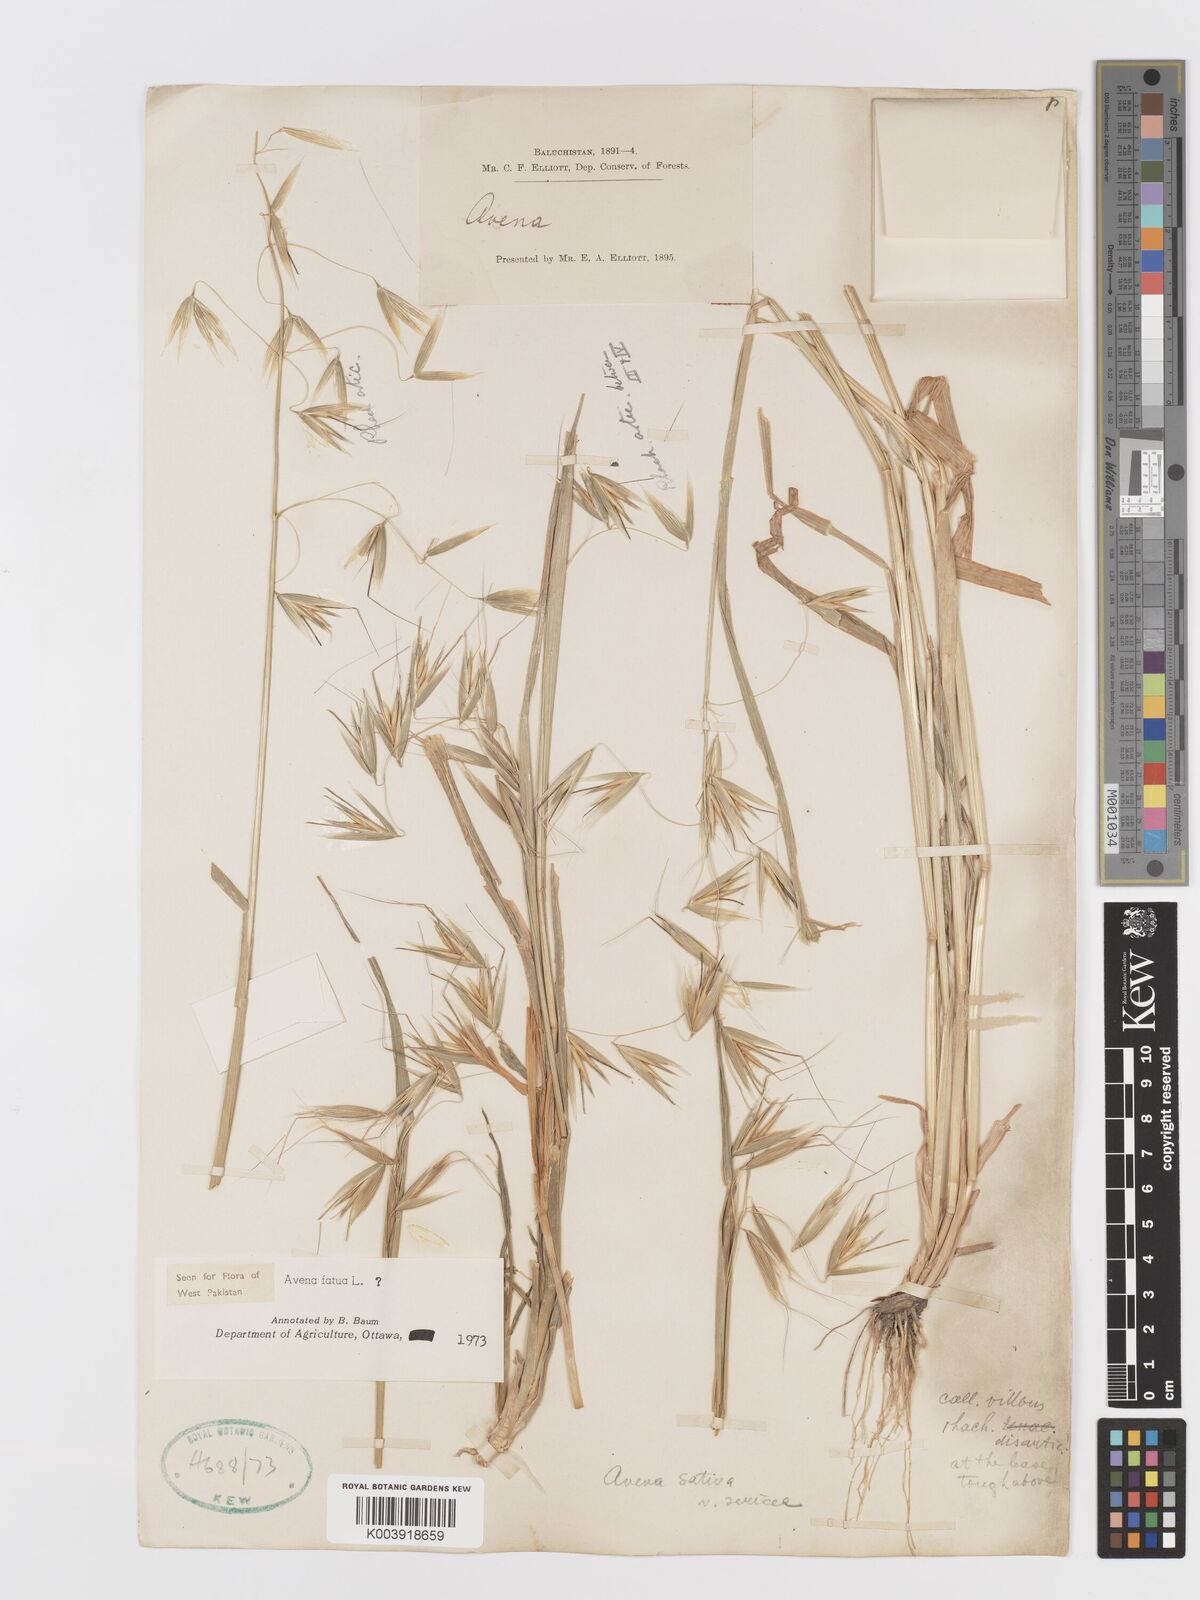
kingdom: Plantae
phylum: Tracheophyta
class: Liliopsida
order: Poales
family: Poaceae
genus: Avena
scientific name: Avena fatua
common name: Wild oat
